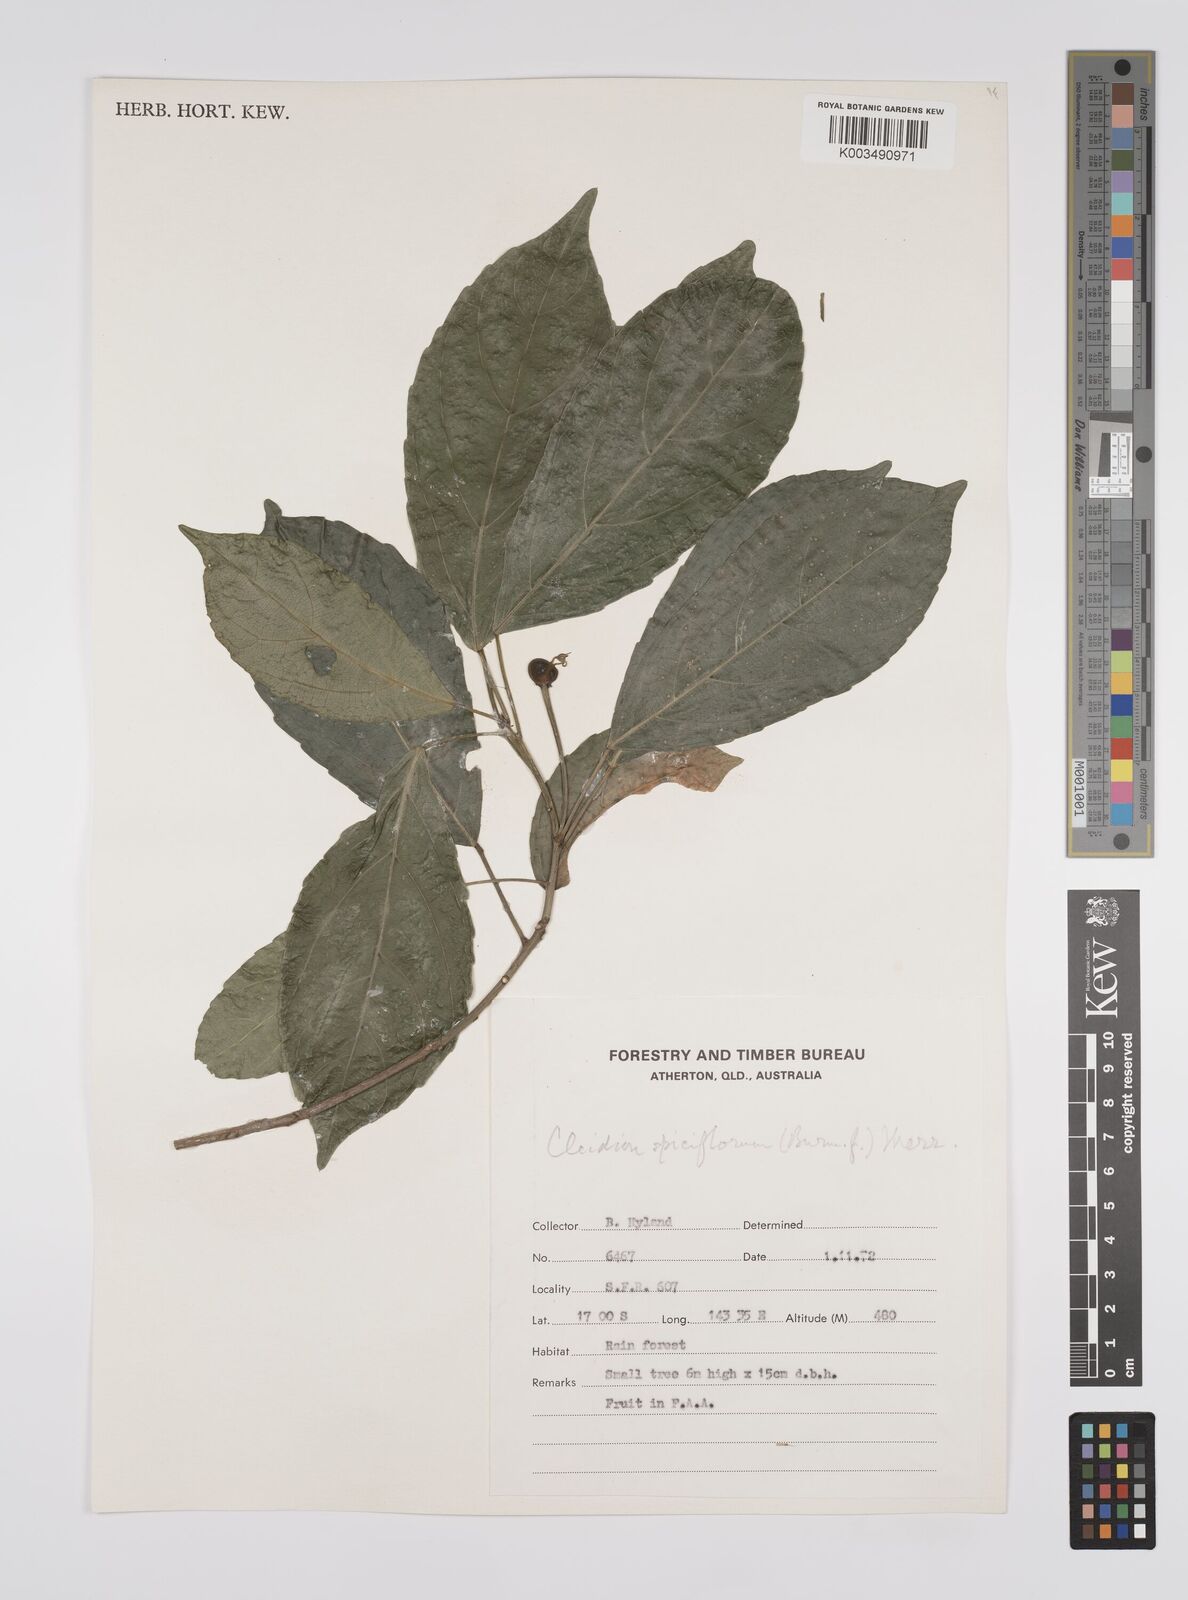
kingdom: Plantae
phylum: Tracheophyta
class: Magnoliopsida
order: Malpighiales
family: Euphorbiaceae
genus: Cleidion
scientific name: Cleidion javanicum
